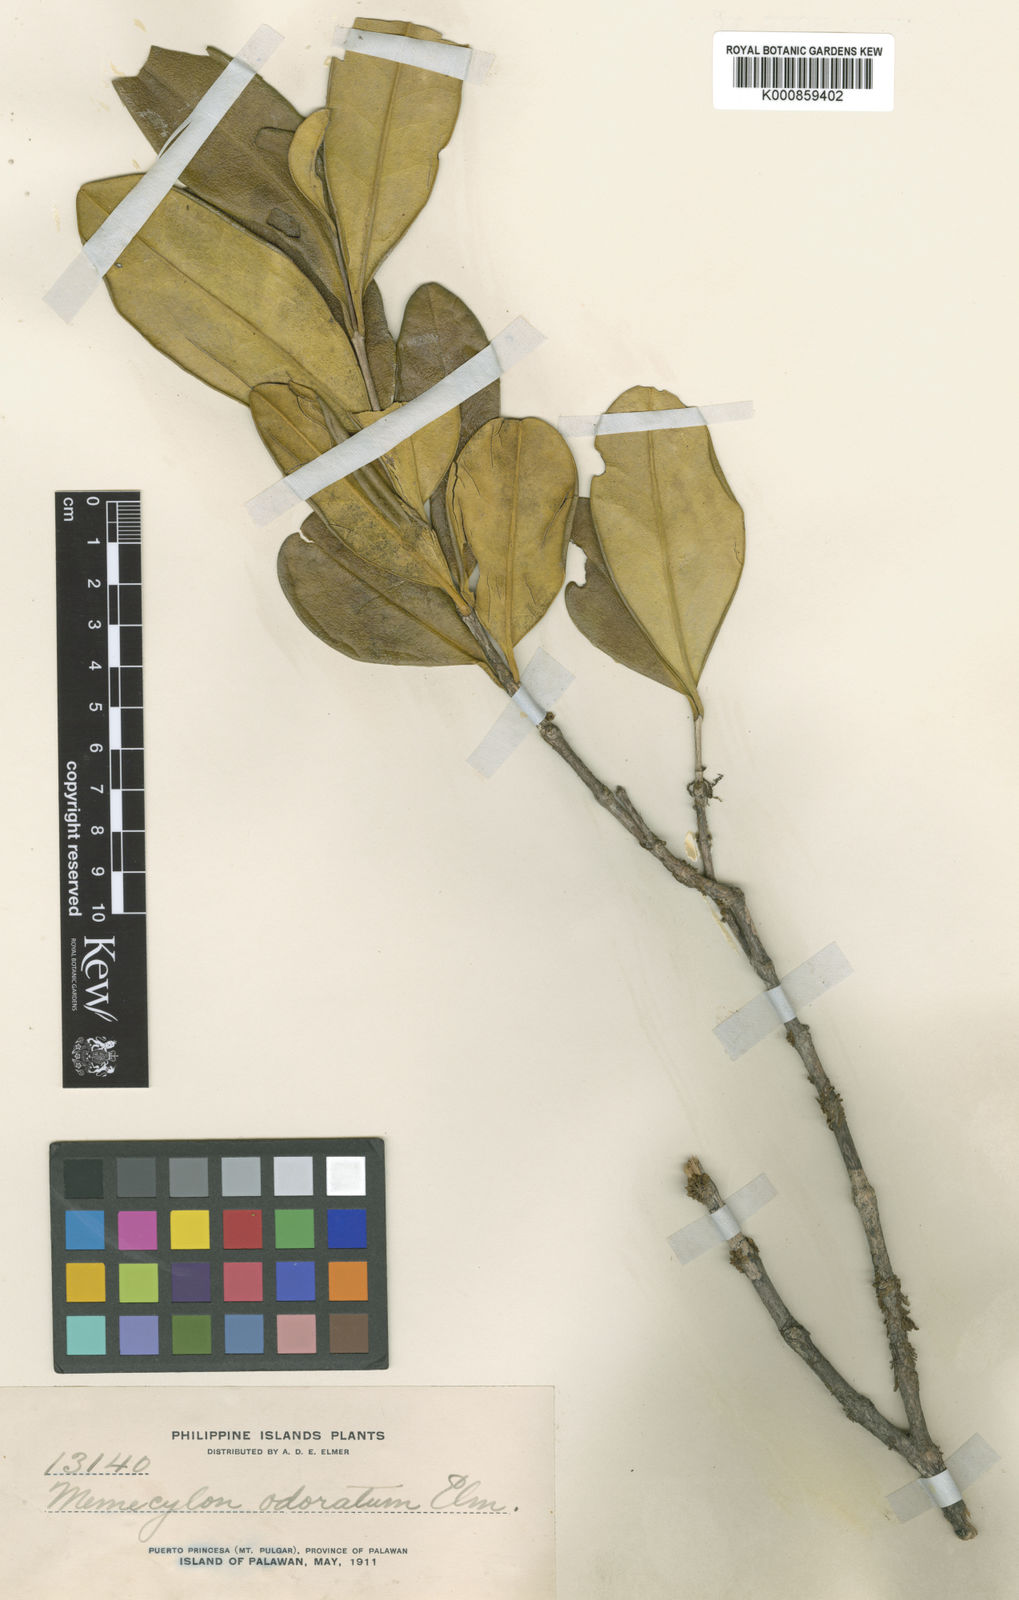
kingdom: Plantae
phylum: Tracheophyta
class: Magnoliopsida
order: Myrtales
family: Melastomataceae
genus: Memecylon
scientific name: Memecylon odoratum
